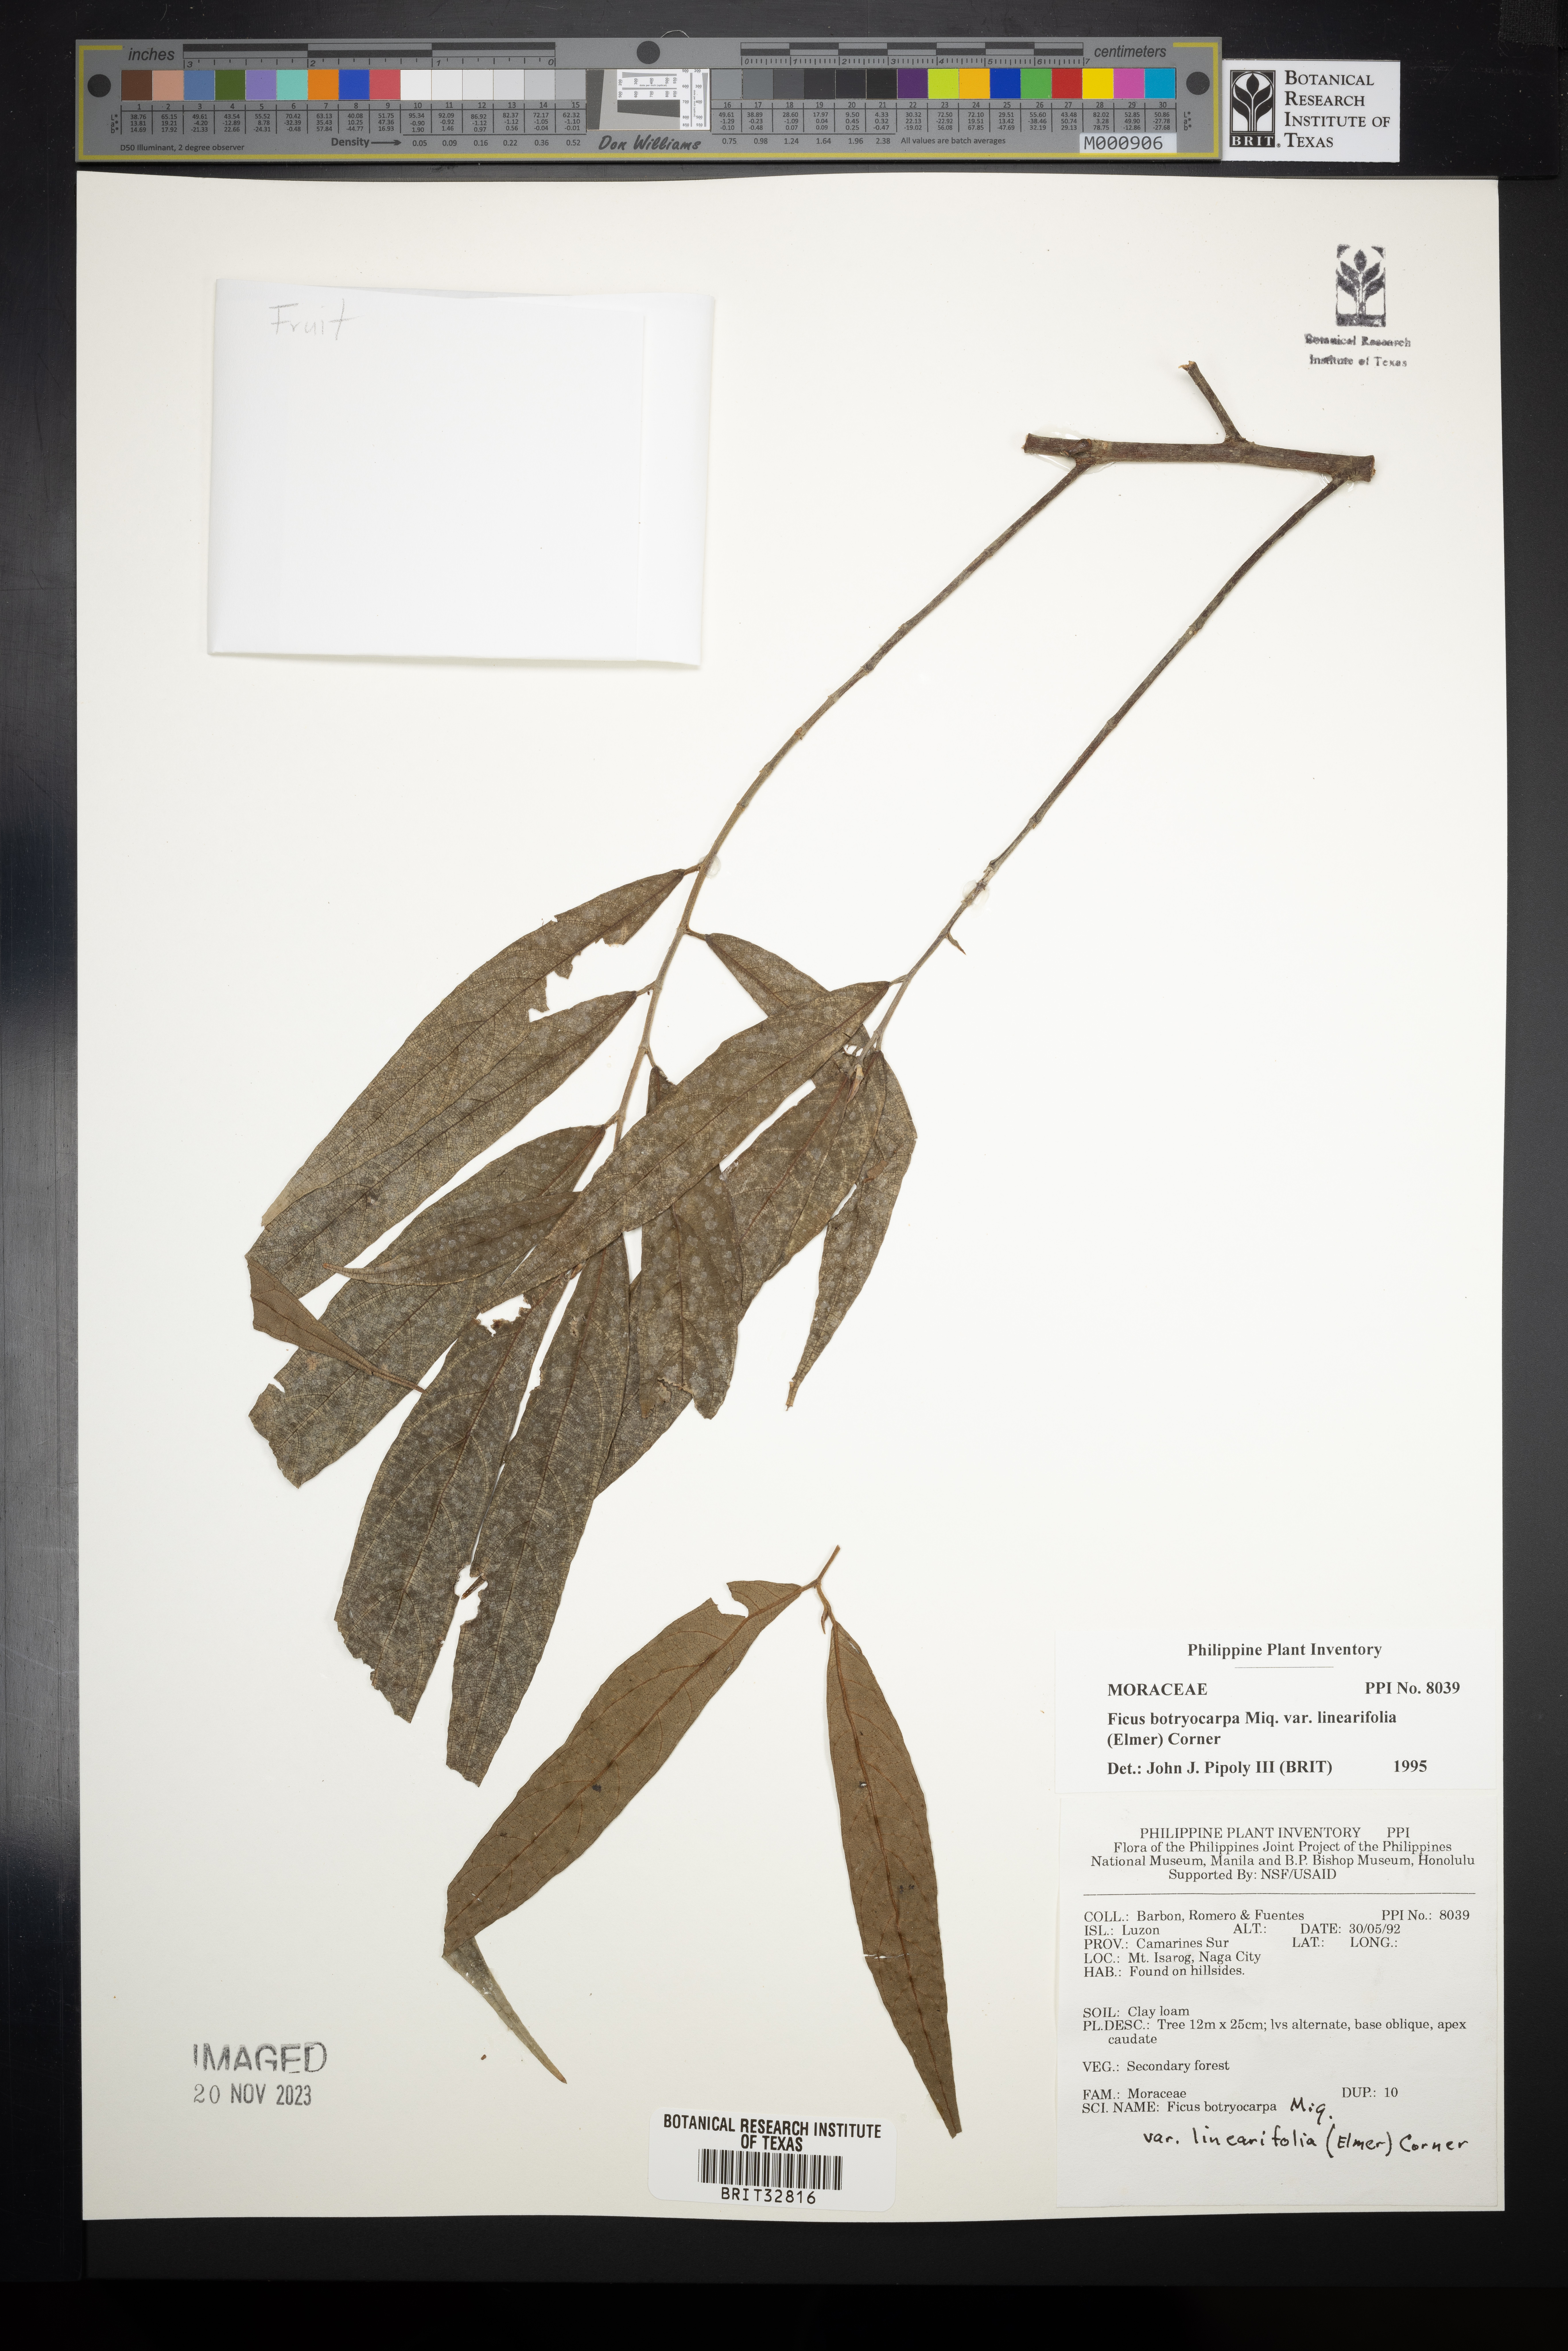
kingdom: Plantae
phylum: Tracheophyta
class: Magnoliopsida
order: Rosales
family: Moraceae
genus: Ficus
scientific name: Ficus botryocarpa
